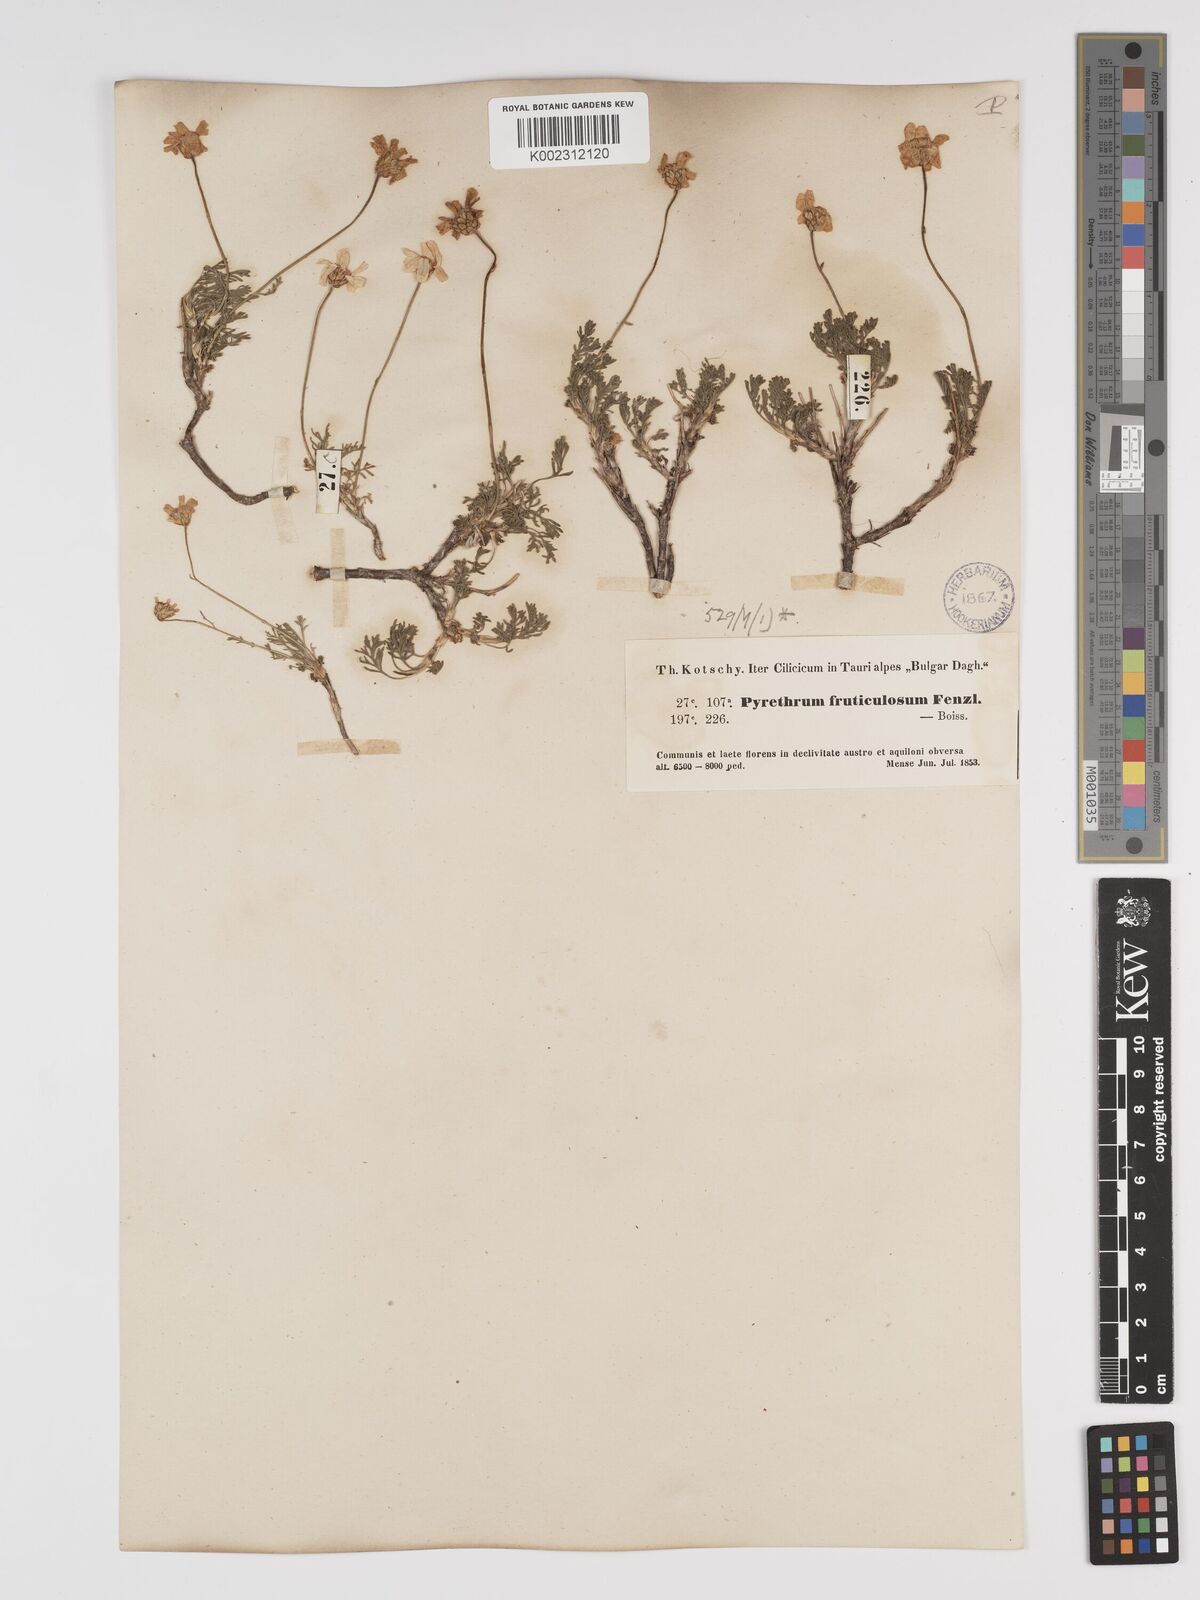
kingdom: Plantae
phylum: Tracheophyta
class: Magnoliopsida
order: Asterales
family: Asteraceae
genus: Ajania
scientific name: Ajania fruticulosa
